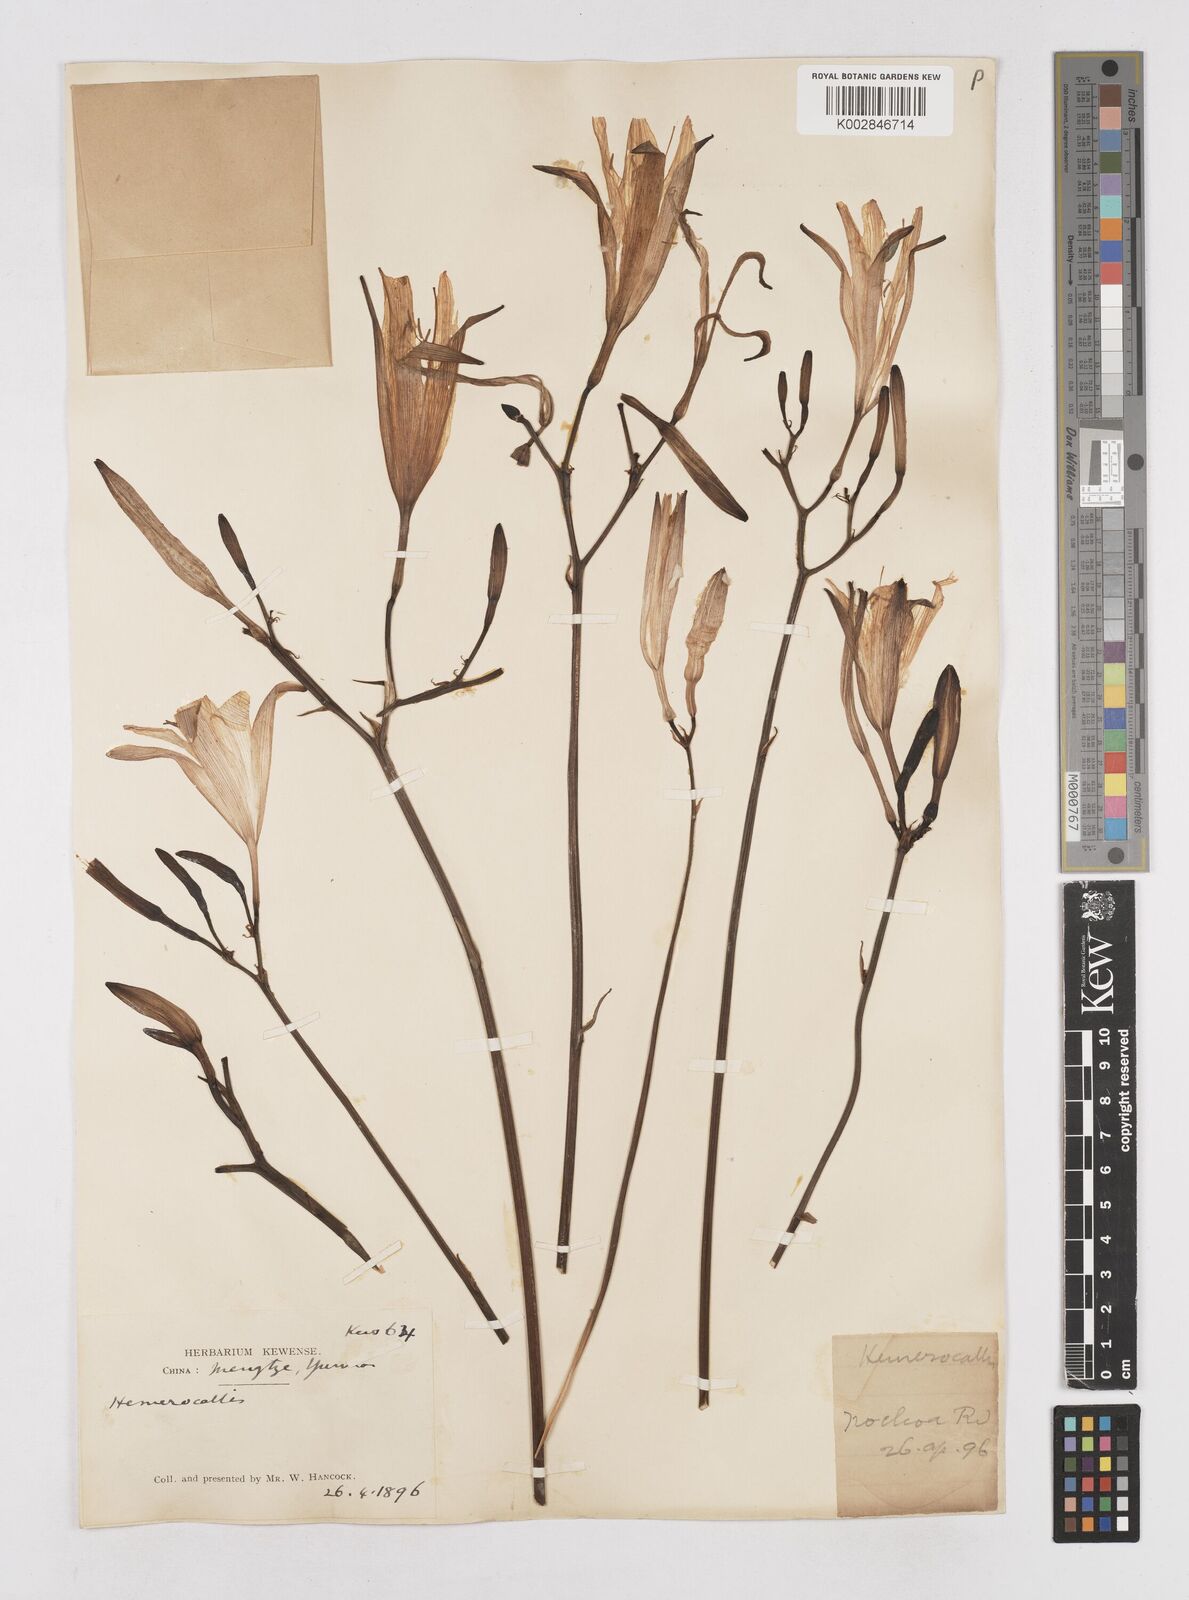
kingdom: Plantae
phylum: Tracheophyta
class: Liliopsida
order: Asparagales
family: Asphodelaceae
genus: Hemerocallis
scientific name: Hemerocallis
